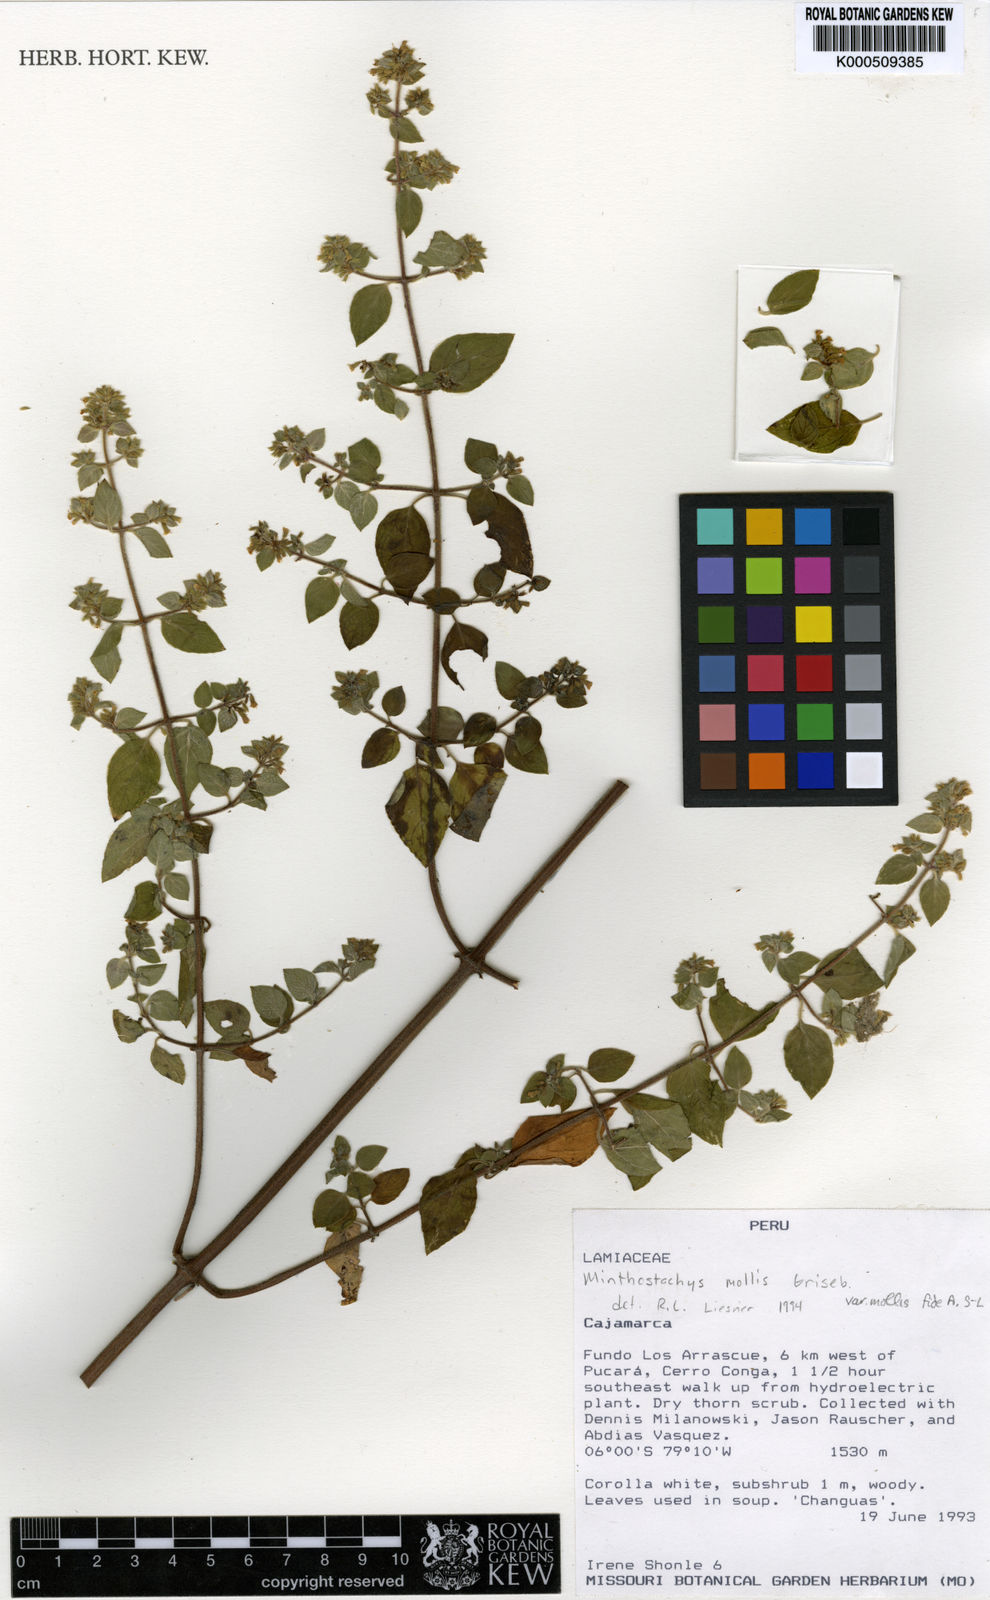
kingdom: Plantae
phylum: Tracheophyta
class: Magnoliopsida
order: Lamiales
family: Lamiaceae
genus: Minthostachys
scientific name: Minthostachys mollis
